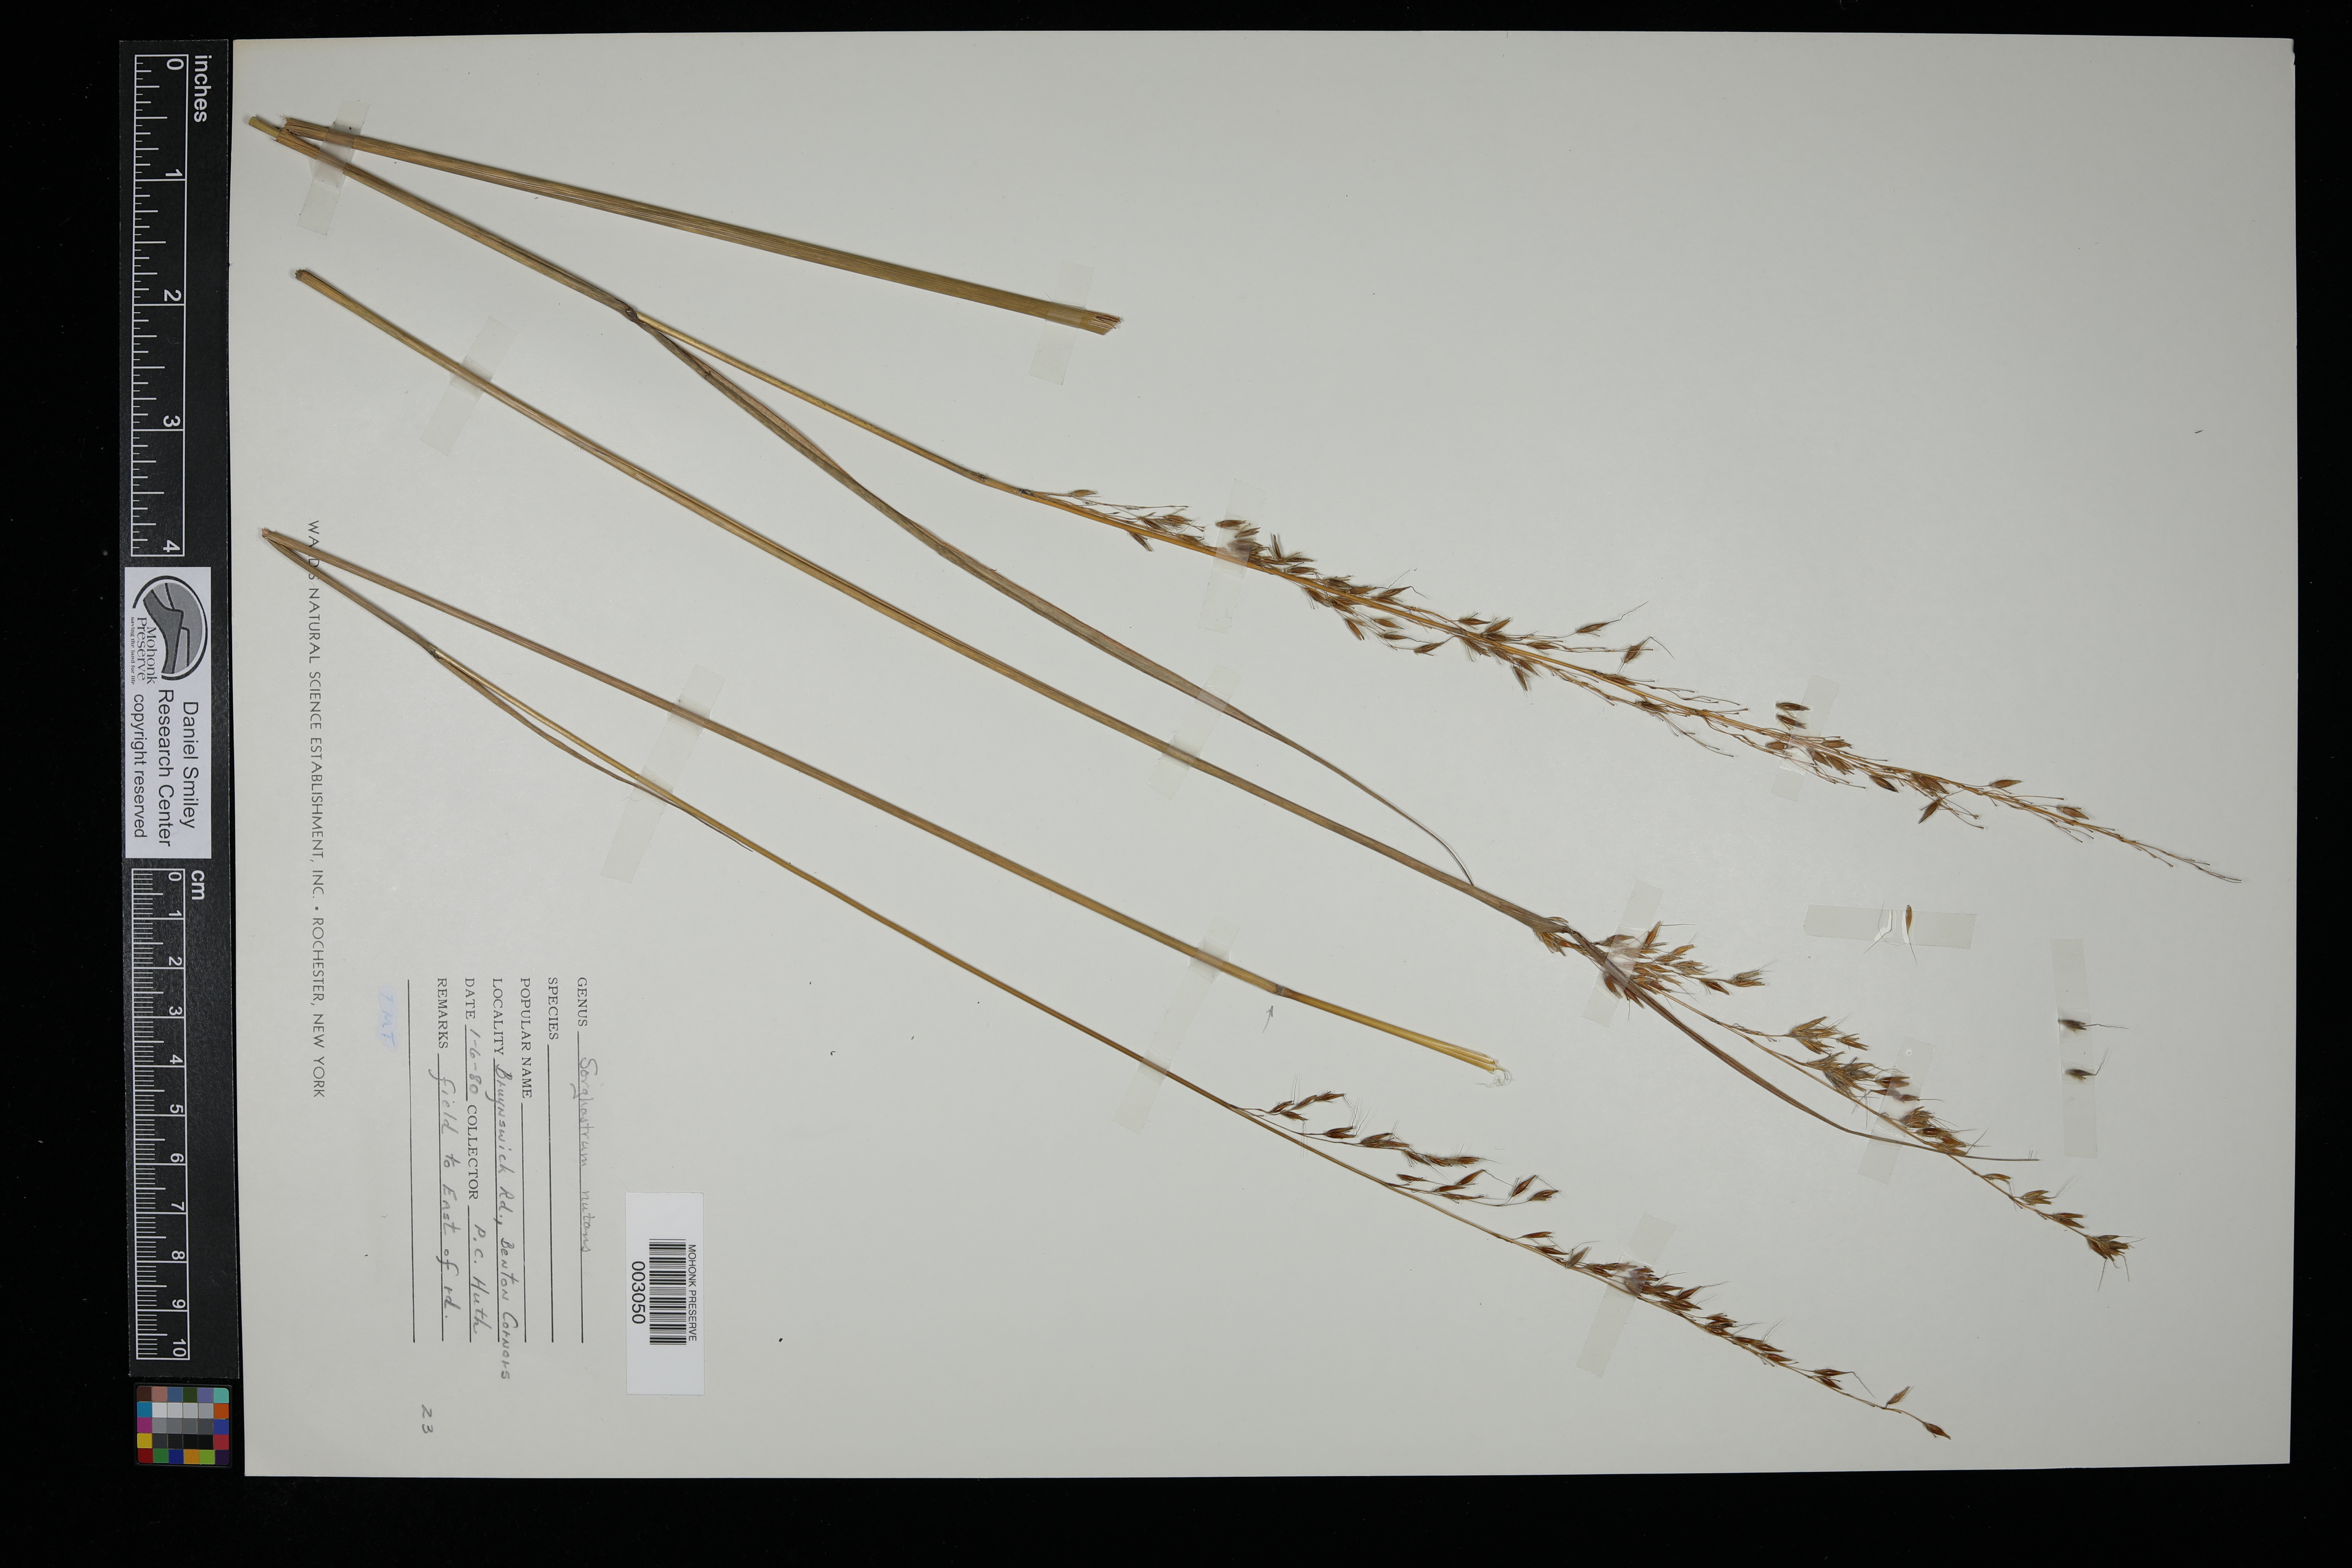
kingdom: Plantae
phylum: Tracheophyta
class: Liliopsida
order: Poales
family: Poaceae
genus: Sorghastrum
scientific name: Sorghastrum nutans
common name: Indian grass
